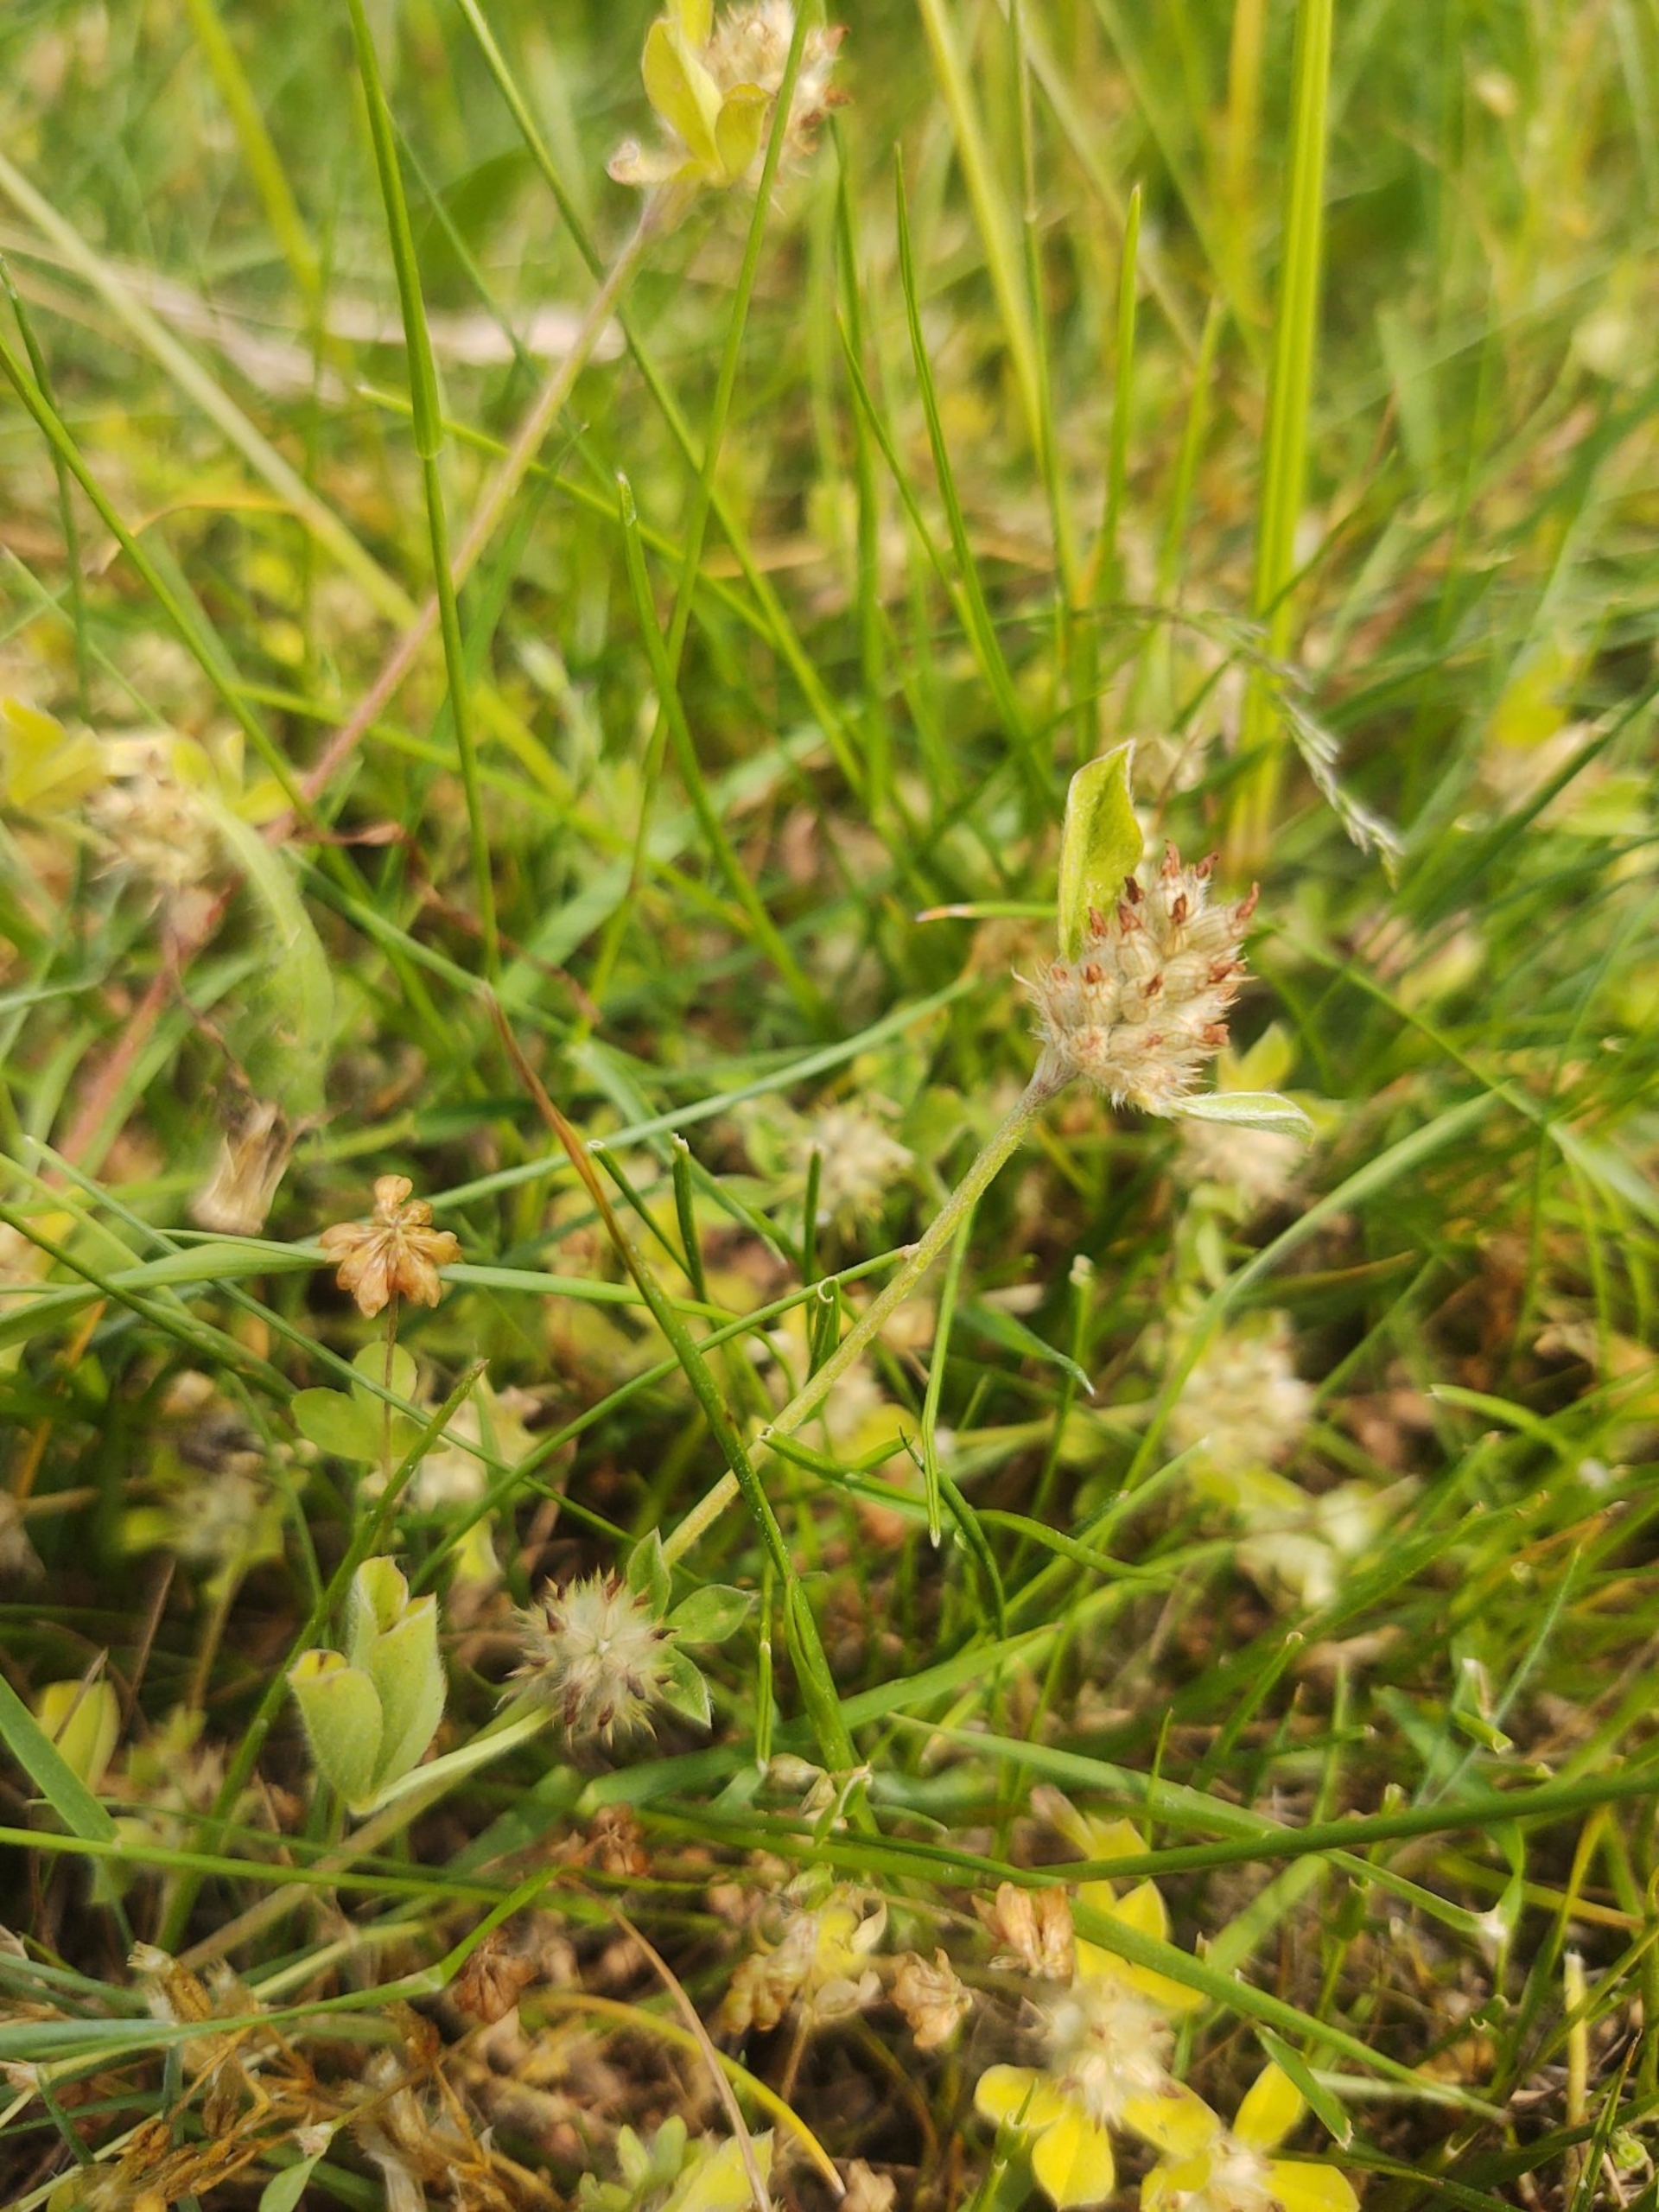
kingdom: Plantae
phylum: Tracheophyta
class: Magnoliopsida
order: Fabales
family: Fabaceae
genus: Trifolium
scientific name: Trifolium striatum
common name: Stribet kløver
